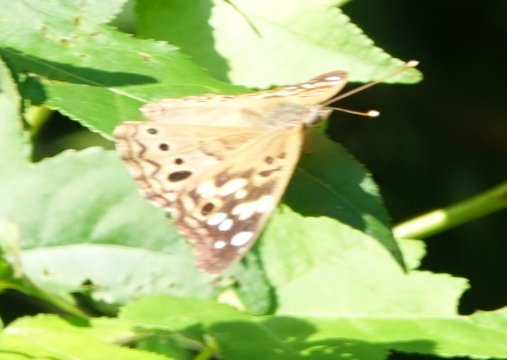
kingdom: Animalia
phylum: Arthropoda
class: Insecta
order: Lepidoptera
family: Nymphalidae
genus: Asterocampa
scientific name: Asterocampa celtis
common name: Hackberry Emperor
